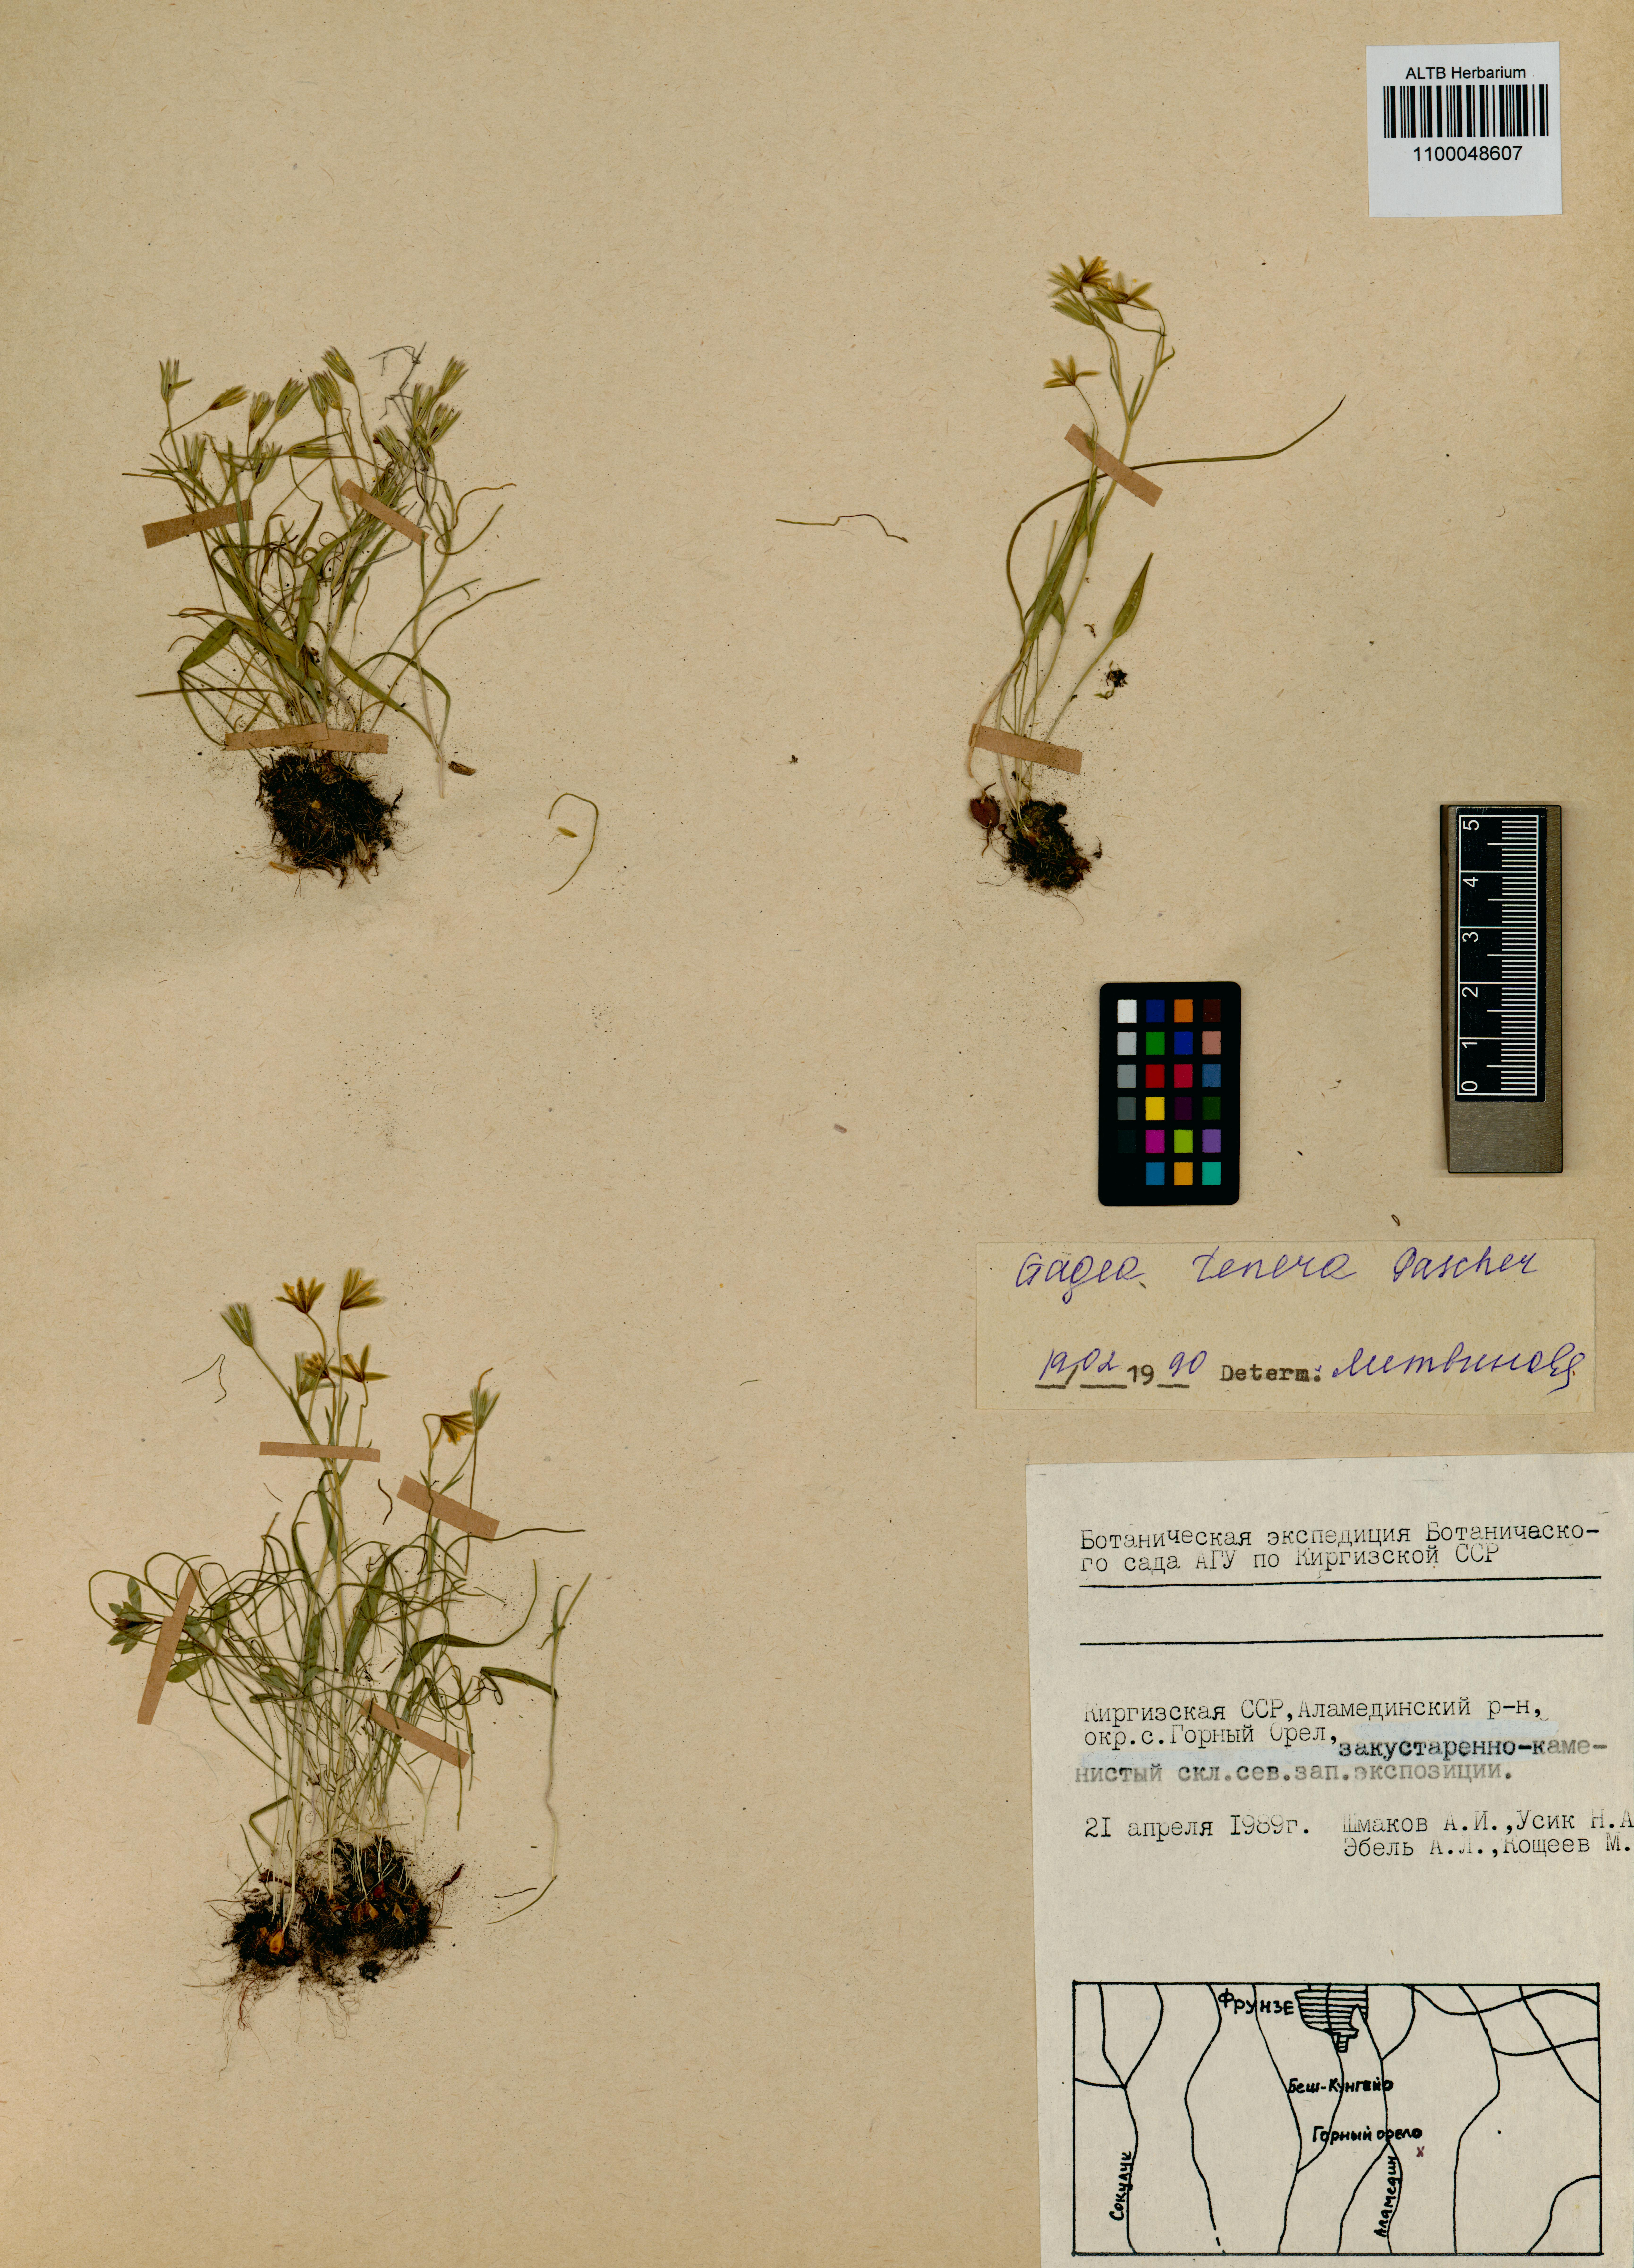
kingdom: Plantae
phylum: Tracheophyta
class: Liliopsida
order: Liliales
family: Liliaceae
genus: Gagea
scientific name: Gagea tenera
